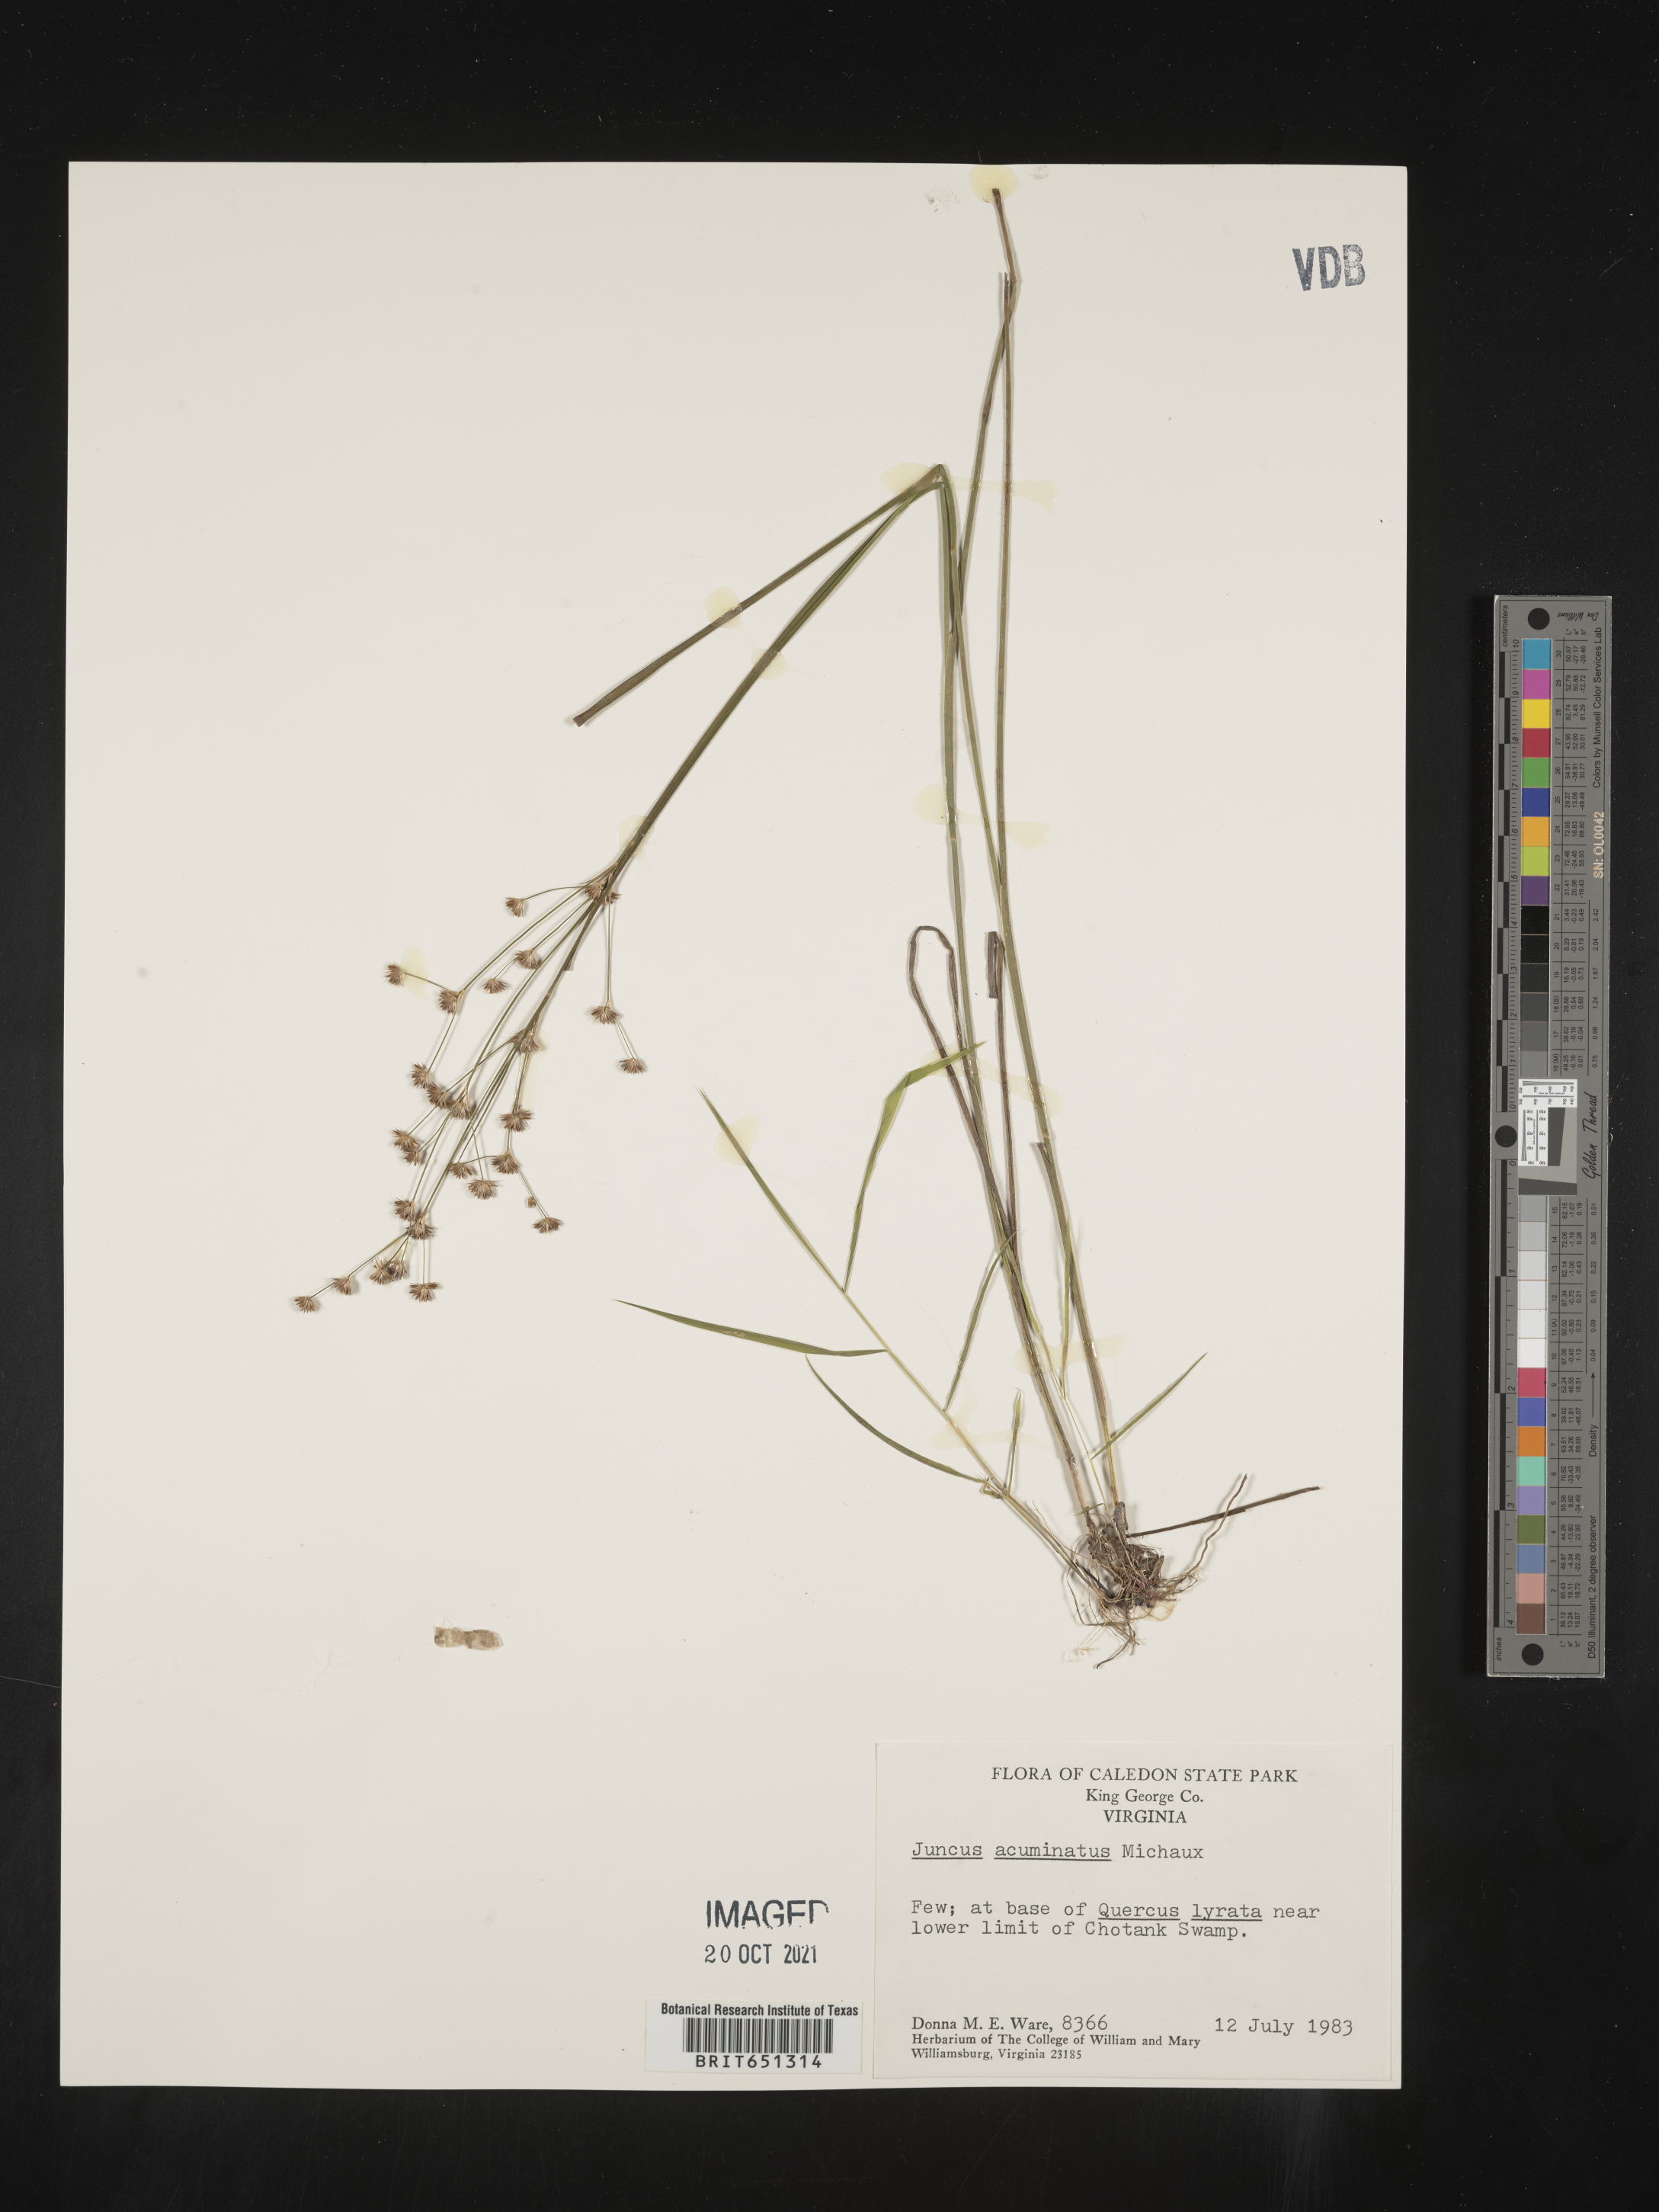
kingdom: Plantae
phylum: Tracheophyta
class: Liliopsida
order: Poales
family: Juncaceae
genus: Juncus
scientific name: Juncus acuminatus
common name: Knotty-leaved rush
